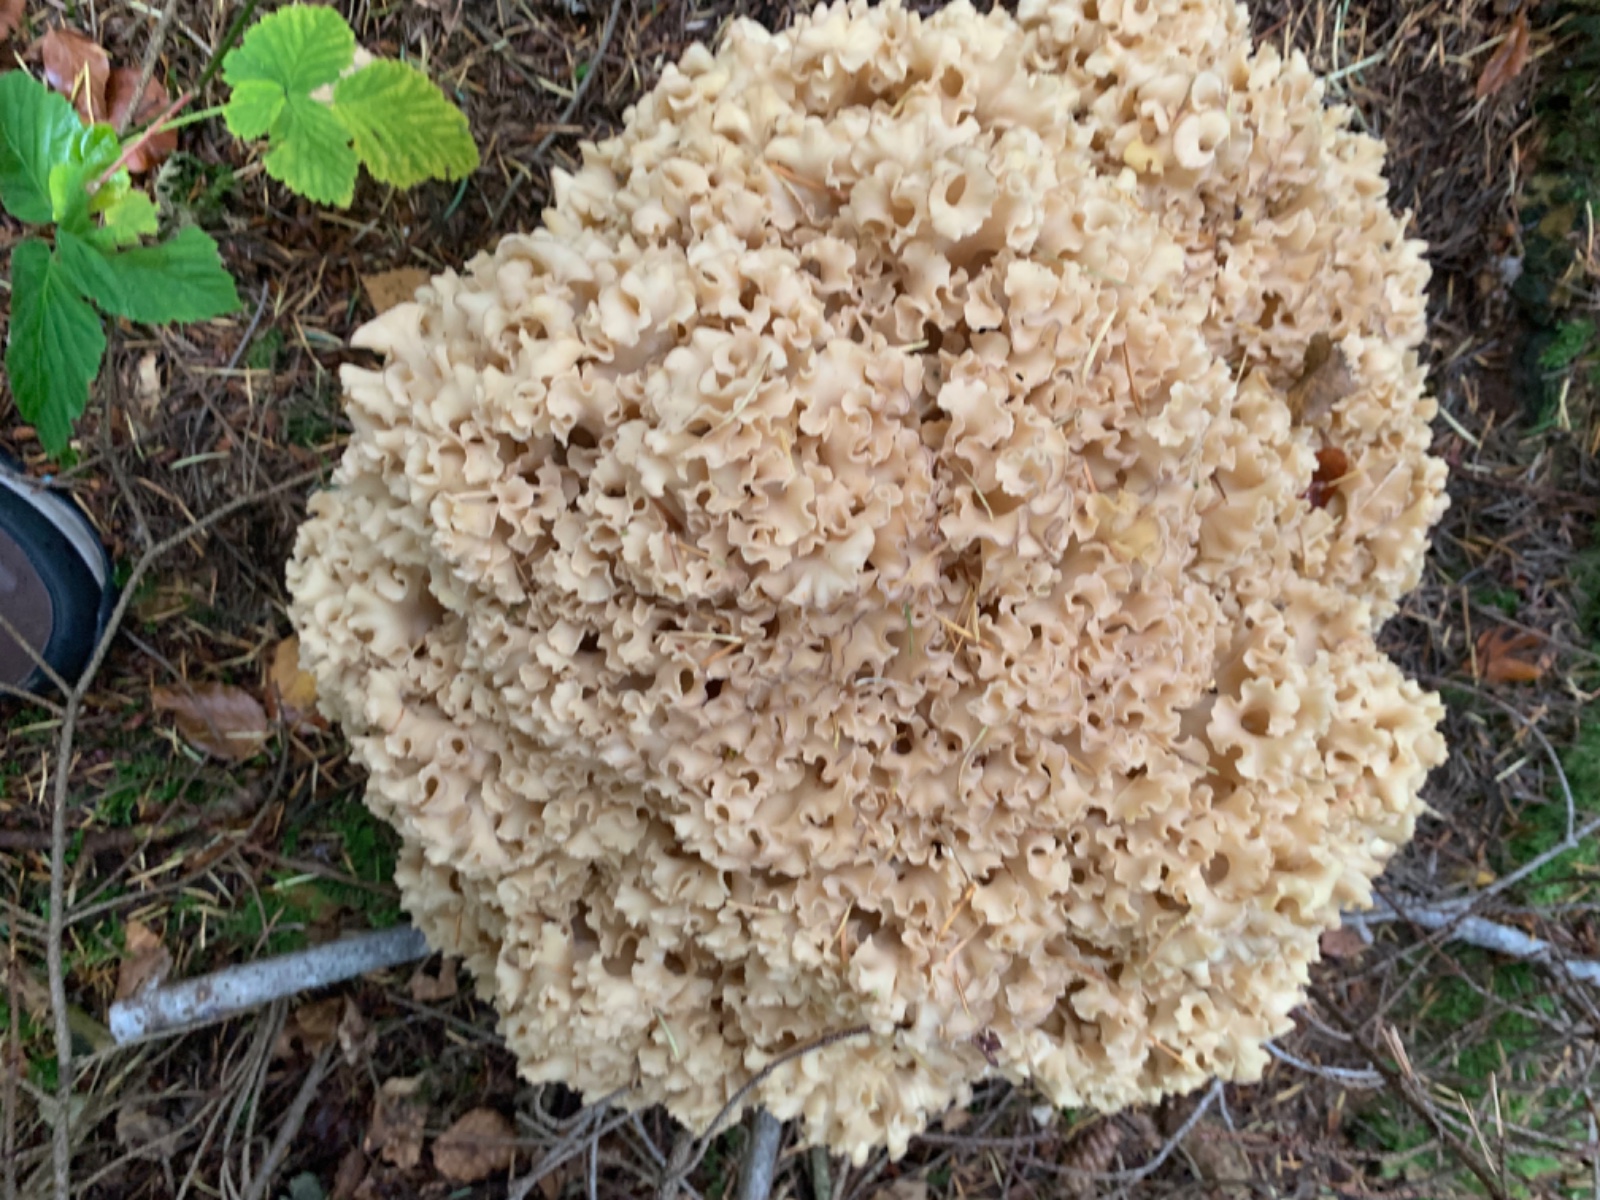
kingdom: Fungi
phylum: Basidiomycota
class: Agaricomycetes
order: Polyporales
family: Sparassidaceae
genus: Sparassis
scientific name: Sparassis crispa
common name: kruset blomkålssvamp
